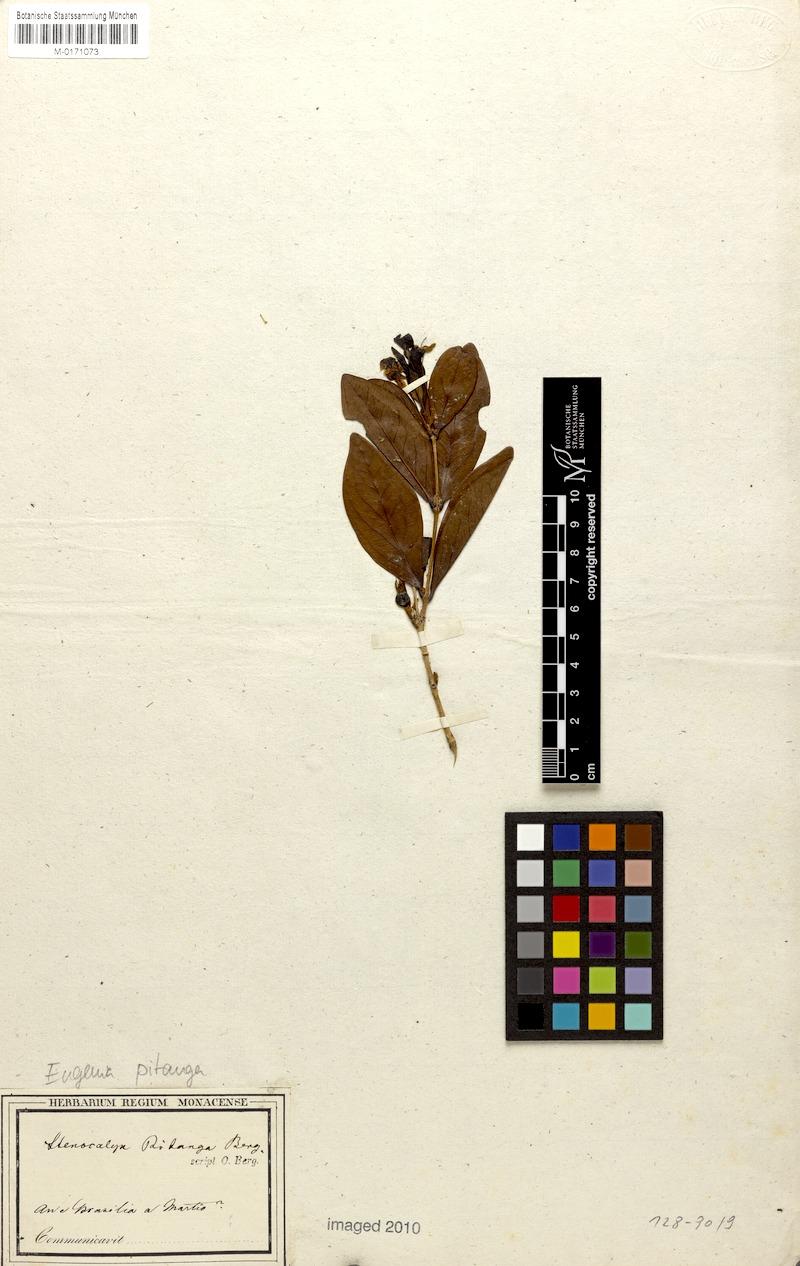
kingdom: Plantae
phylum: Tracheophyta
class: Magnoliopsida
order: Myrtales
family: Myrtaceae
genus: Eugenia
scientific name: Eugenia pitanga
